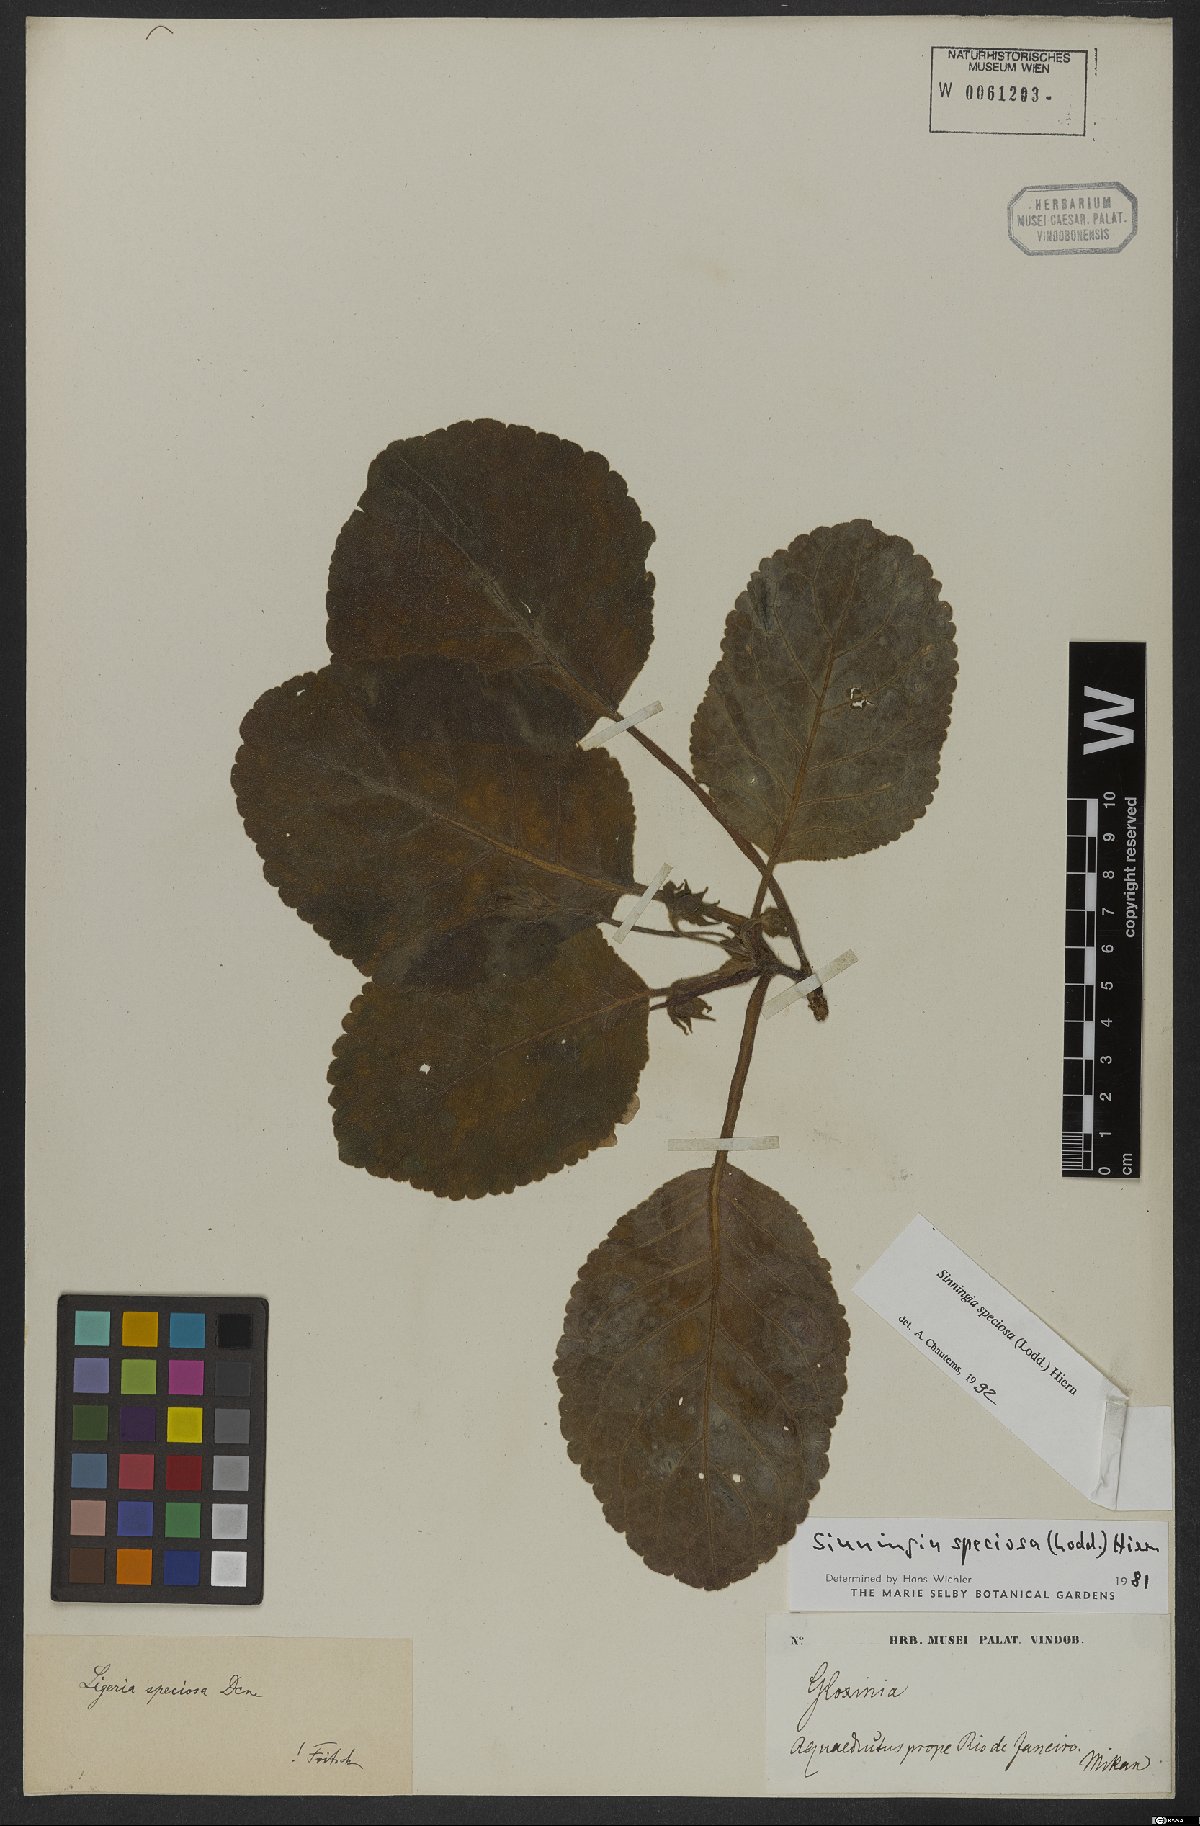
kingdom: Plantae
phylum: Tracheophyta
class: Magnoliopsida
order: Lamiales
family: Gesneriaceae
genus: Sinningia
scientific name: Sinningia speciosa
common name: Brazilian gloxinia
